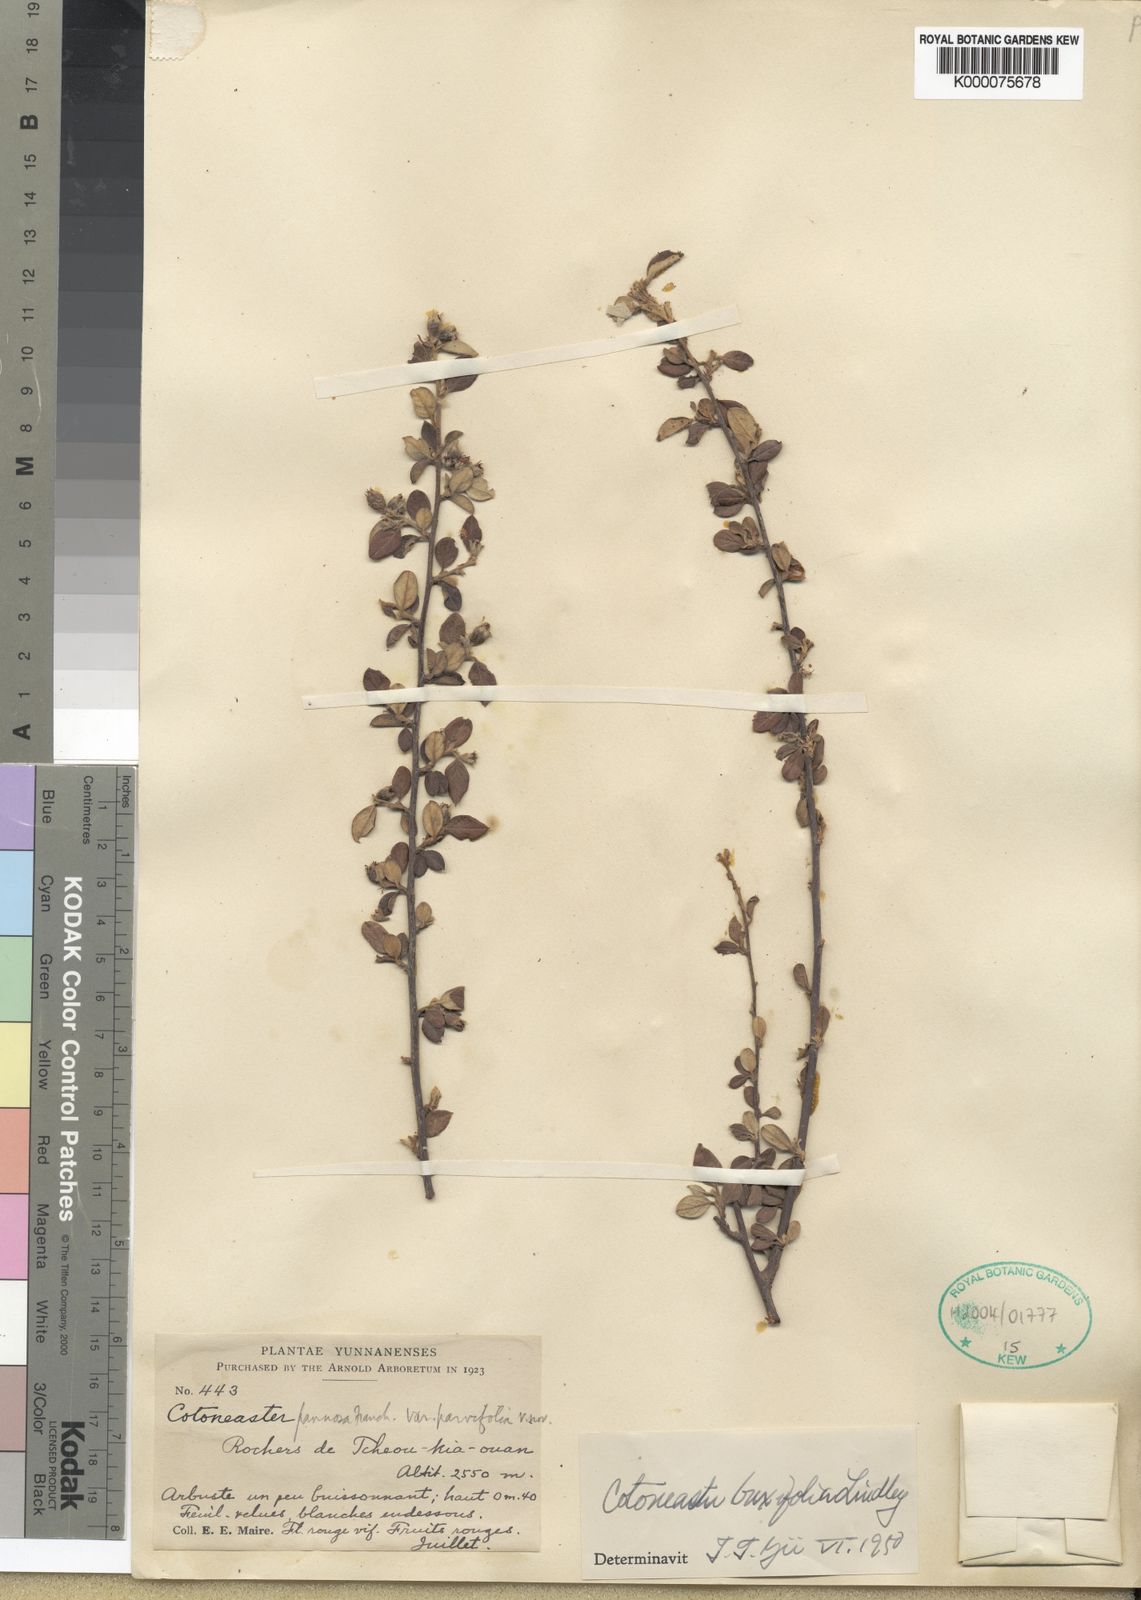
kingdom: Plantae
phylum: Tracheophyta
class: Magnoliopsida
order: Rosales
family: Rosaceae
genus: Cotoneaster
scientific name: Cotoneaster pannosus
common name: Silverleaf cotoneaster
